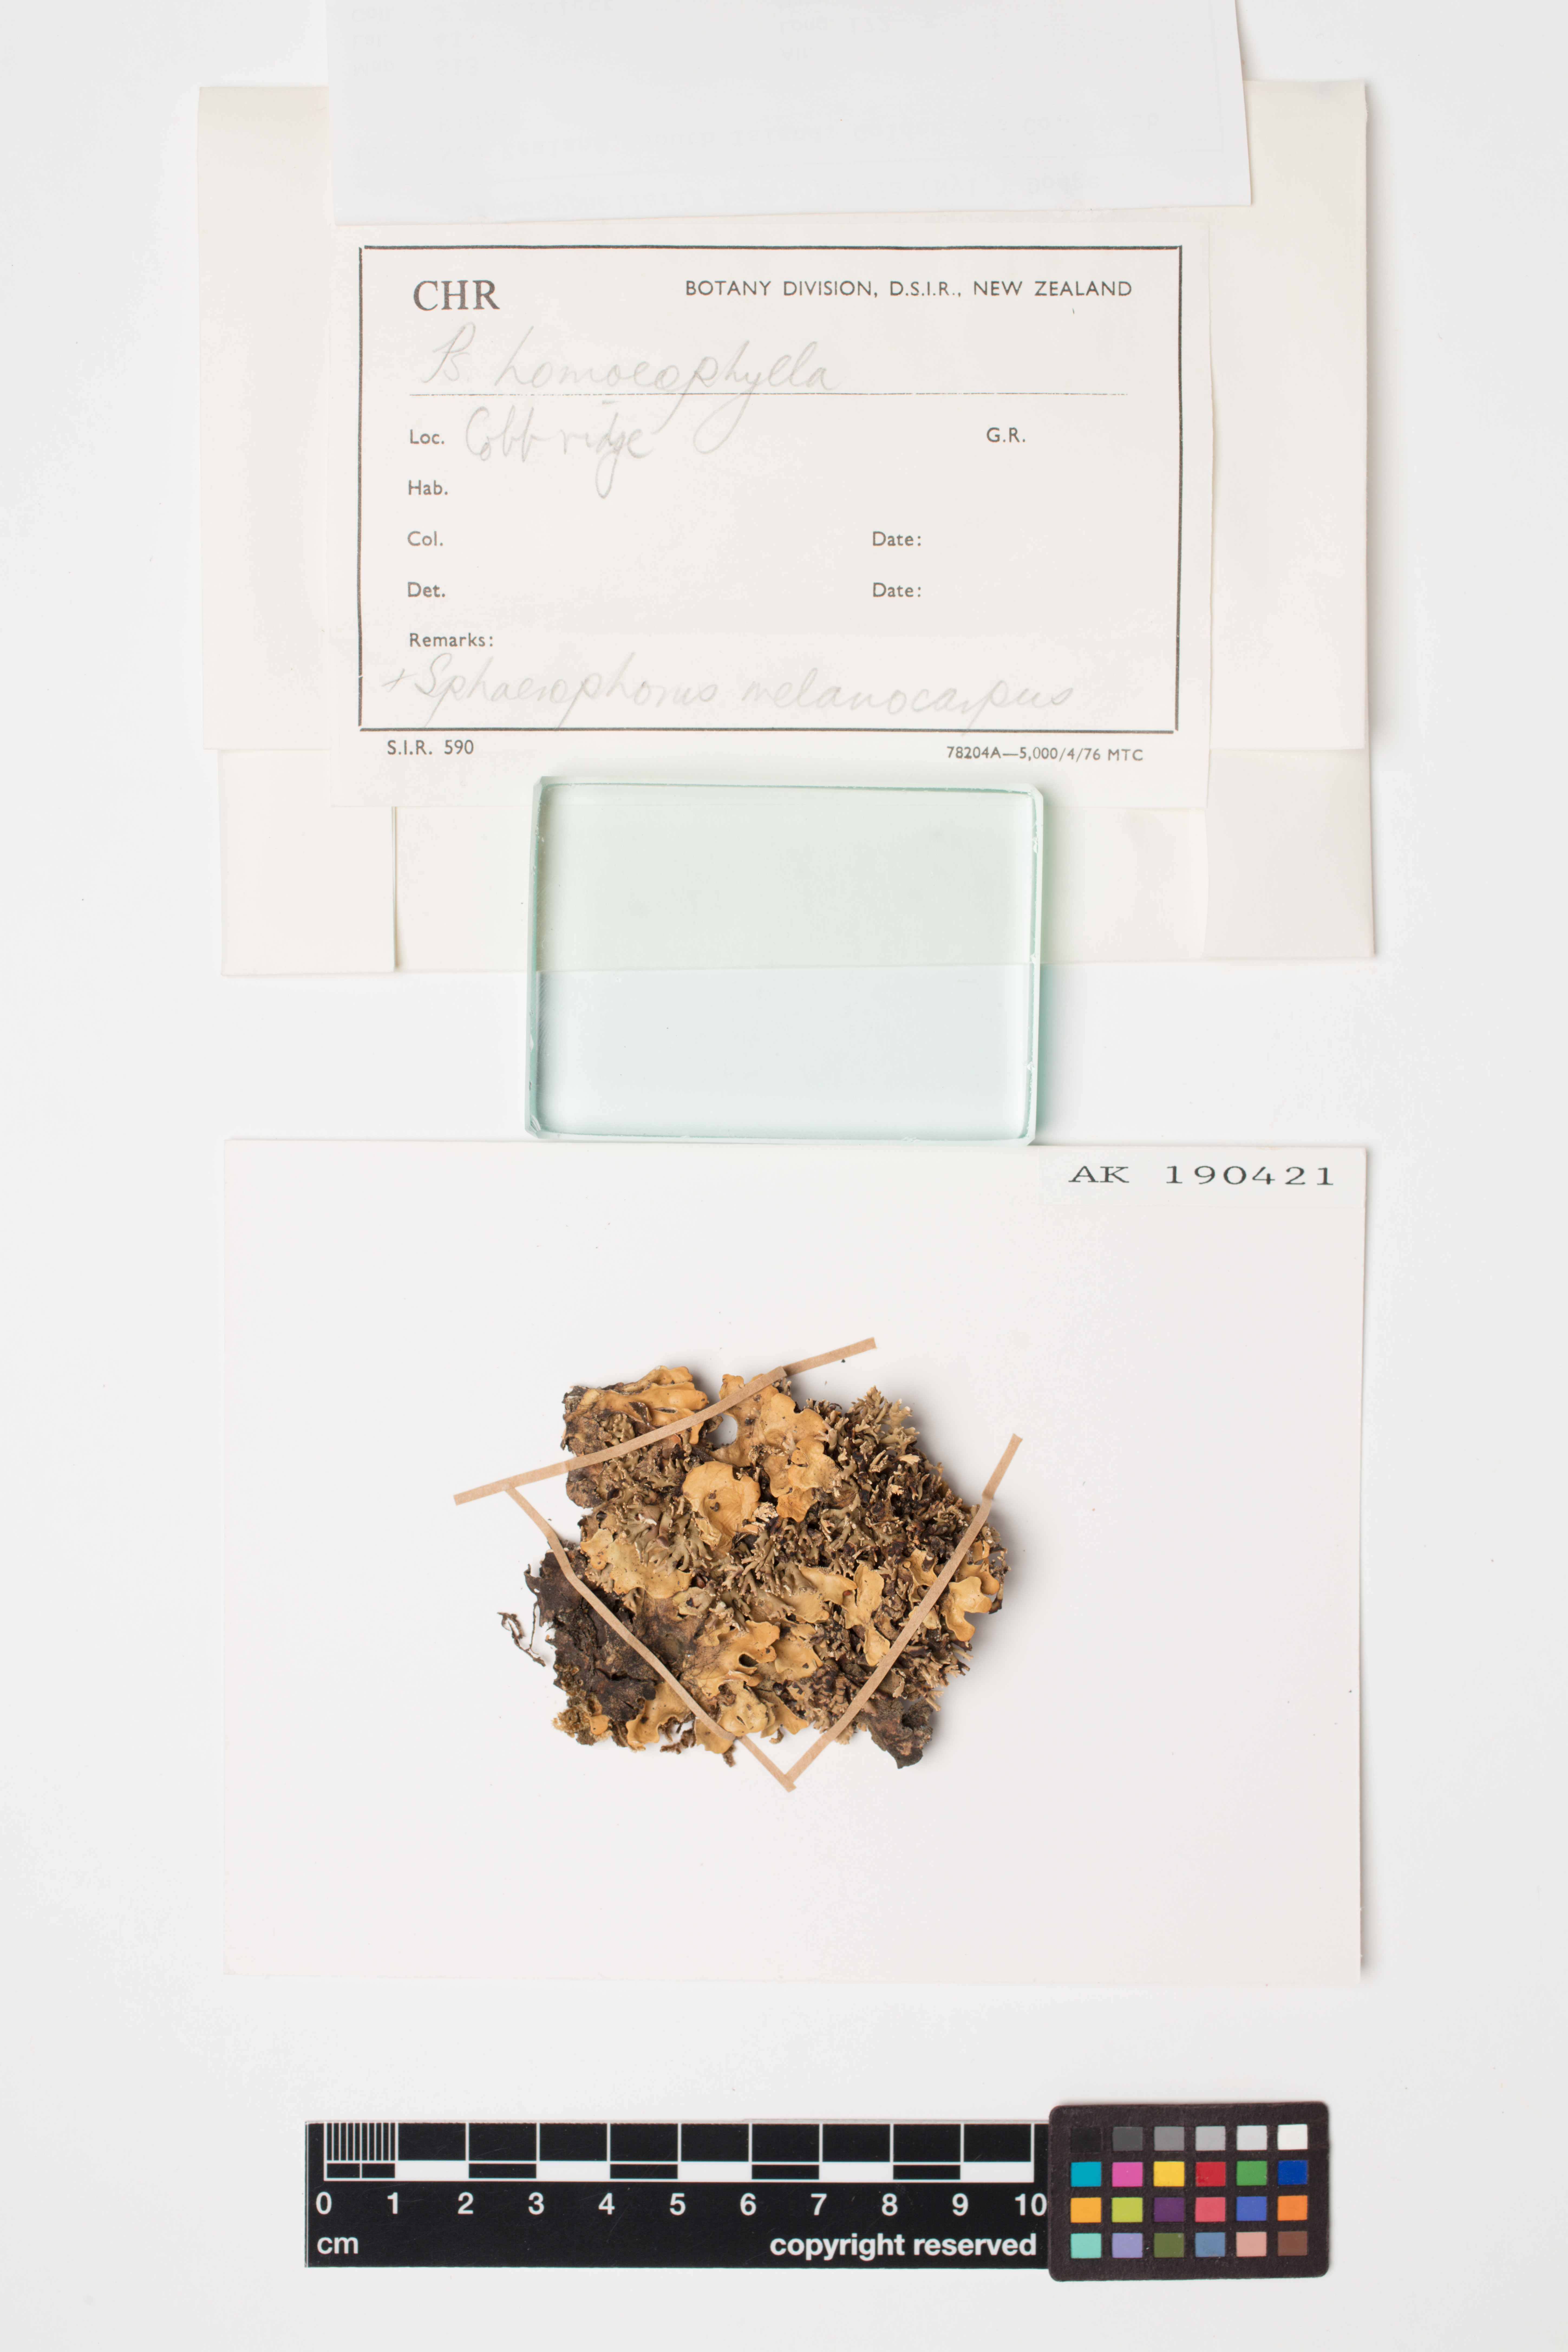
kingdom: Fungi
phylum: Ascomycota
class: Lecanoromycetes
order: Peltigerales
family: Lobariaceae
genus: Pseudocyphellaria
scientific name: Pseudocyphellaria homeophylla
